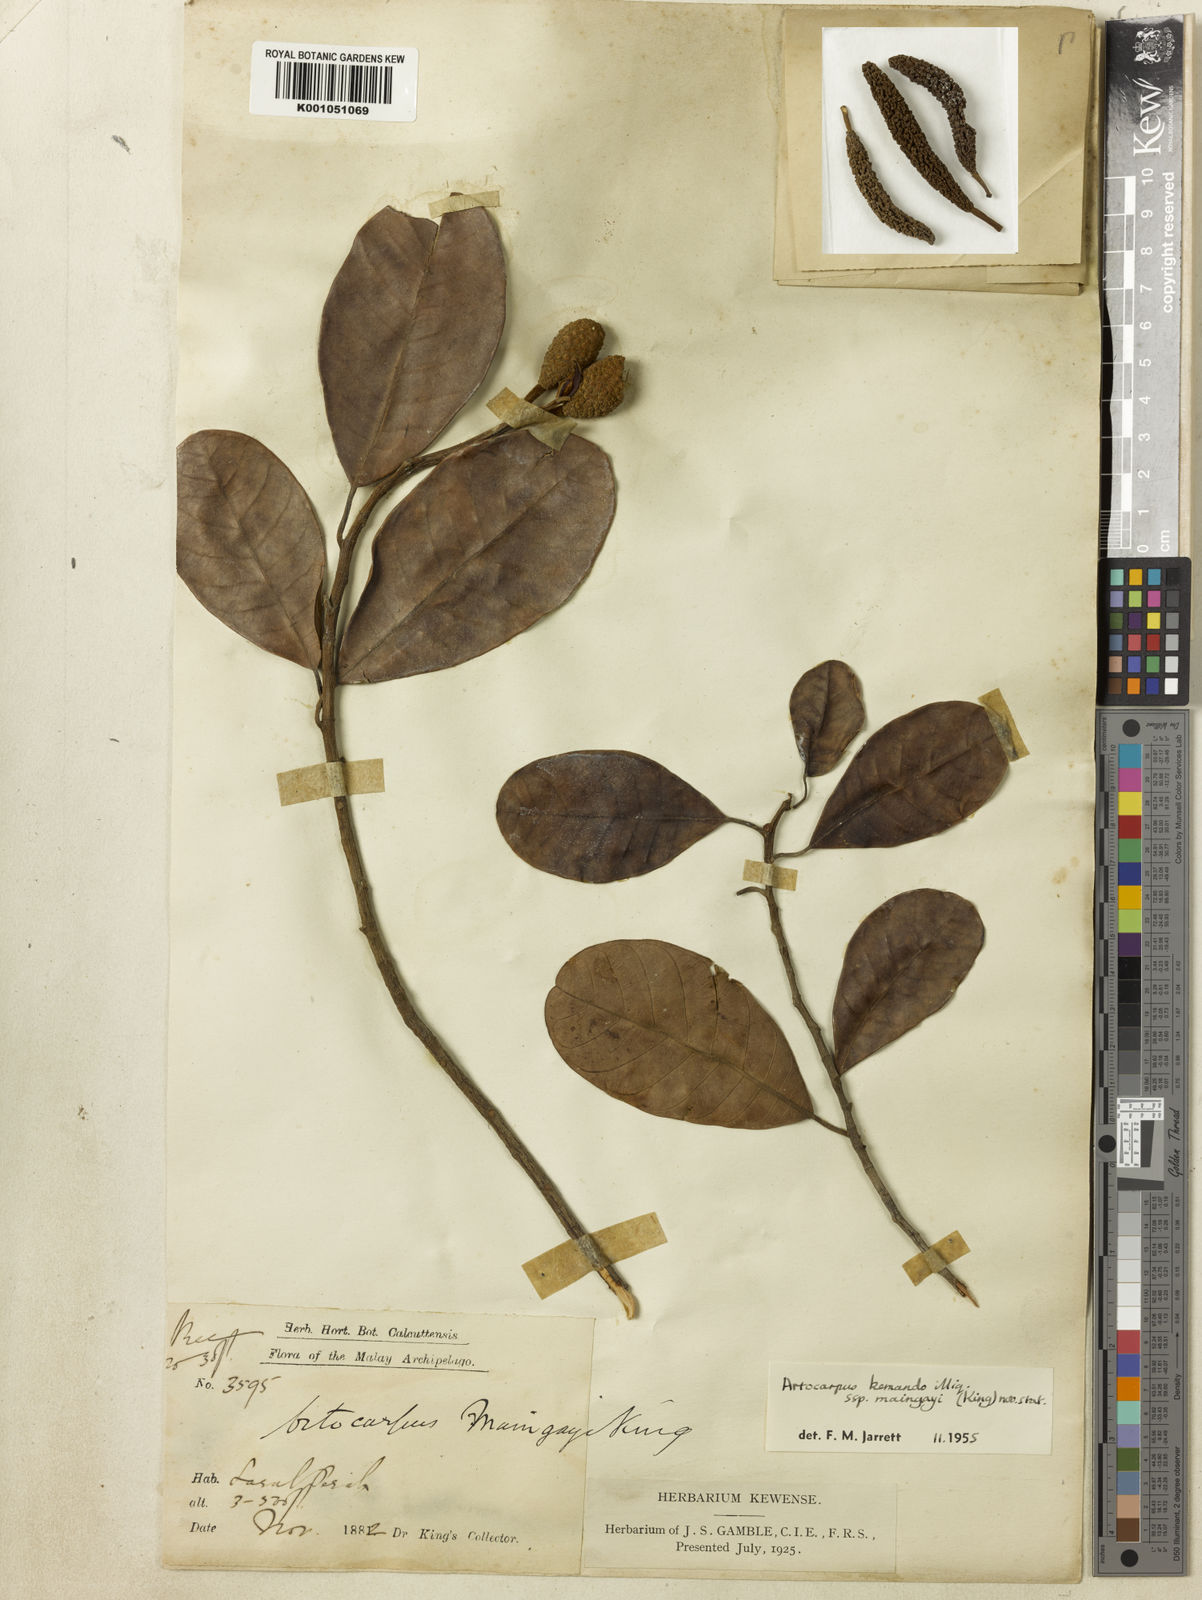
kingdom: Plantae
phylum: Tracheophyta
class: Magnoliopsida
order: Rosales
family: Moraceae
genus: Artocarpus
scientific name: Artocarpus kemando
